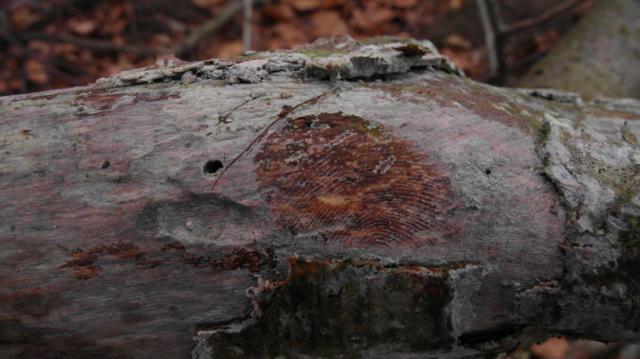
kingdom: Fungi
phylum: Basidiomycota
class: Tremellomycetes
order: Tremellales
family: Exidiaceae
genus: Exidiopsis
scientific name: Exidiopsis effusa
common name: smuk bævrehinde
